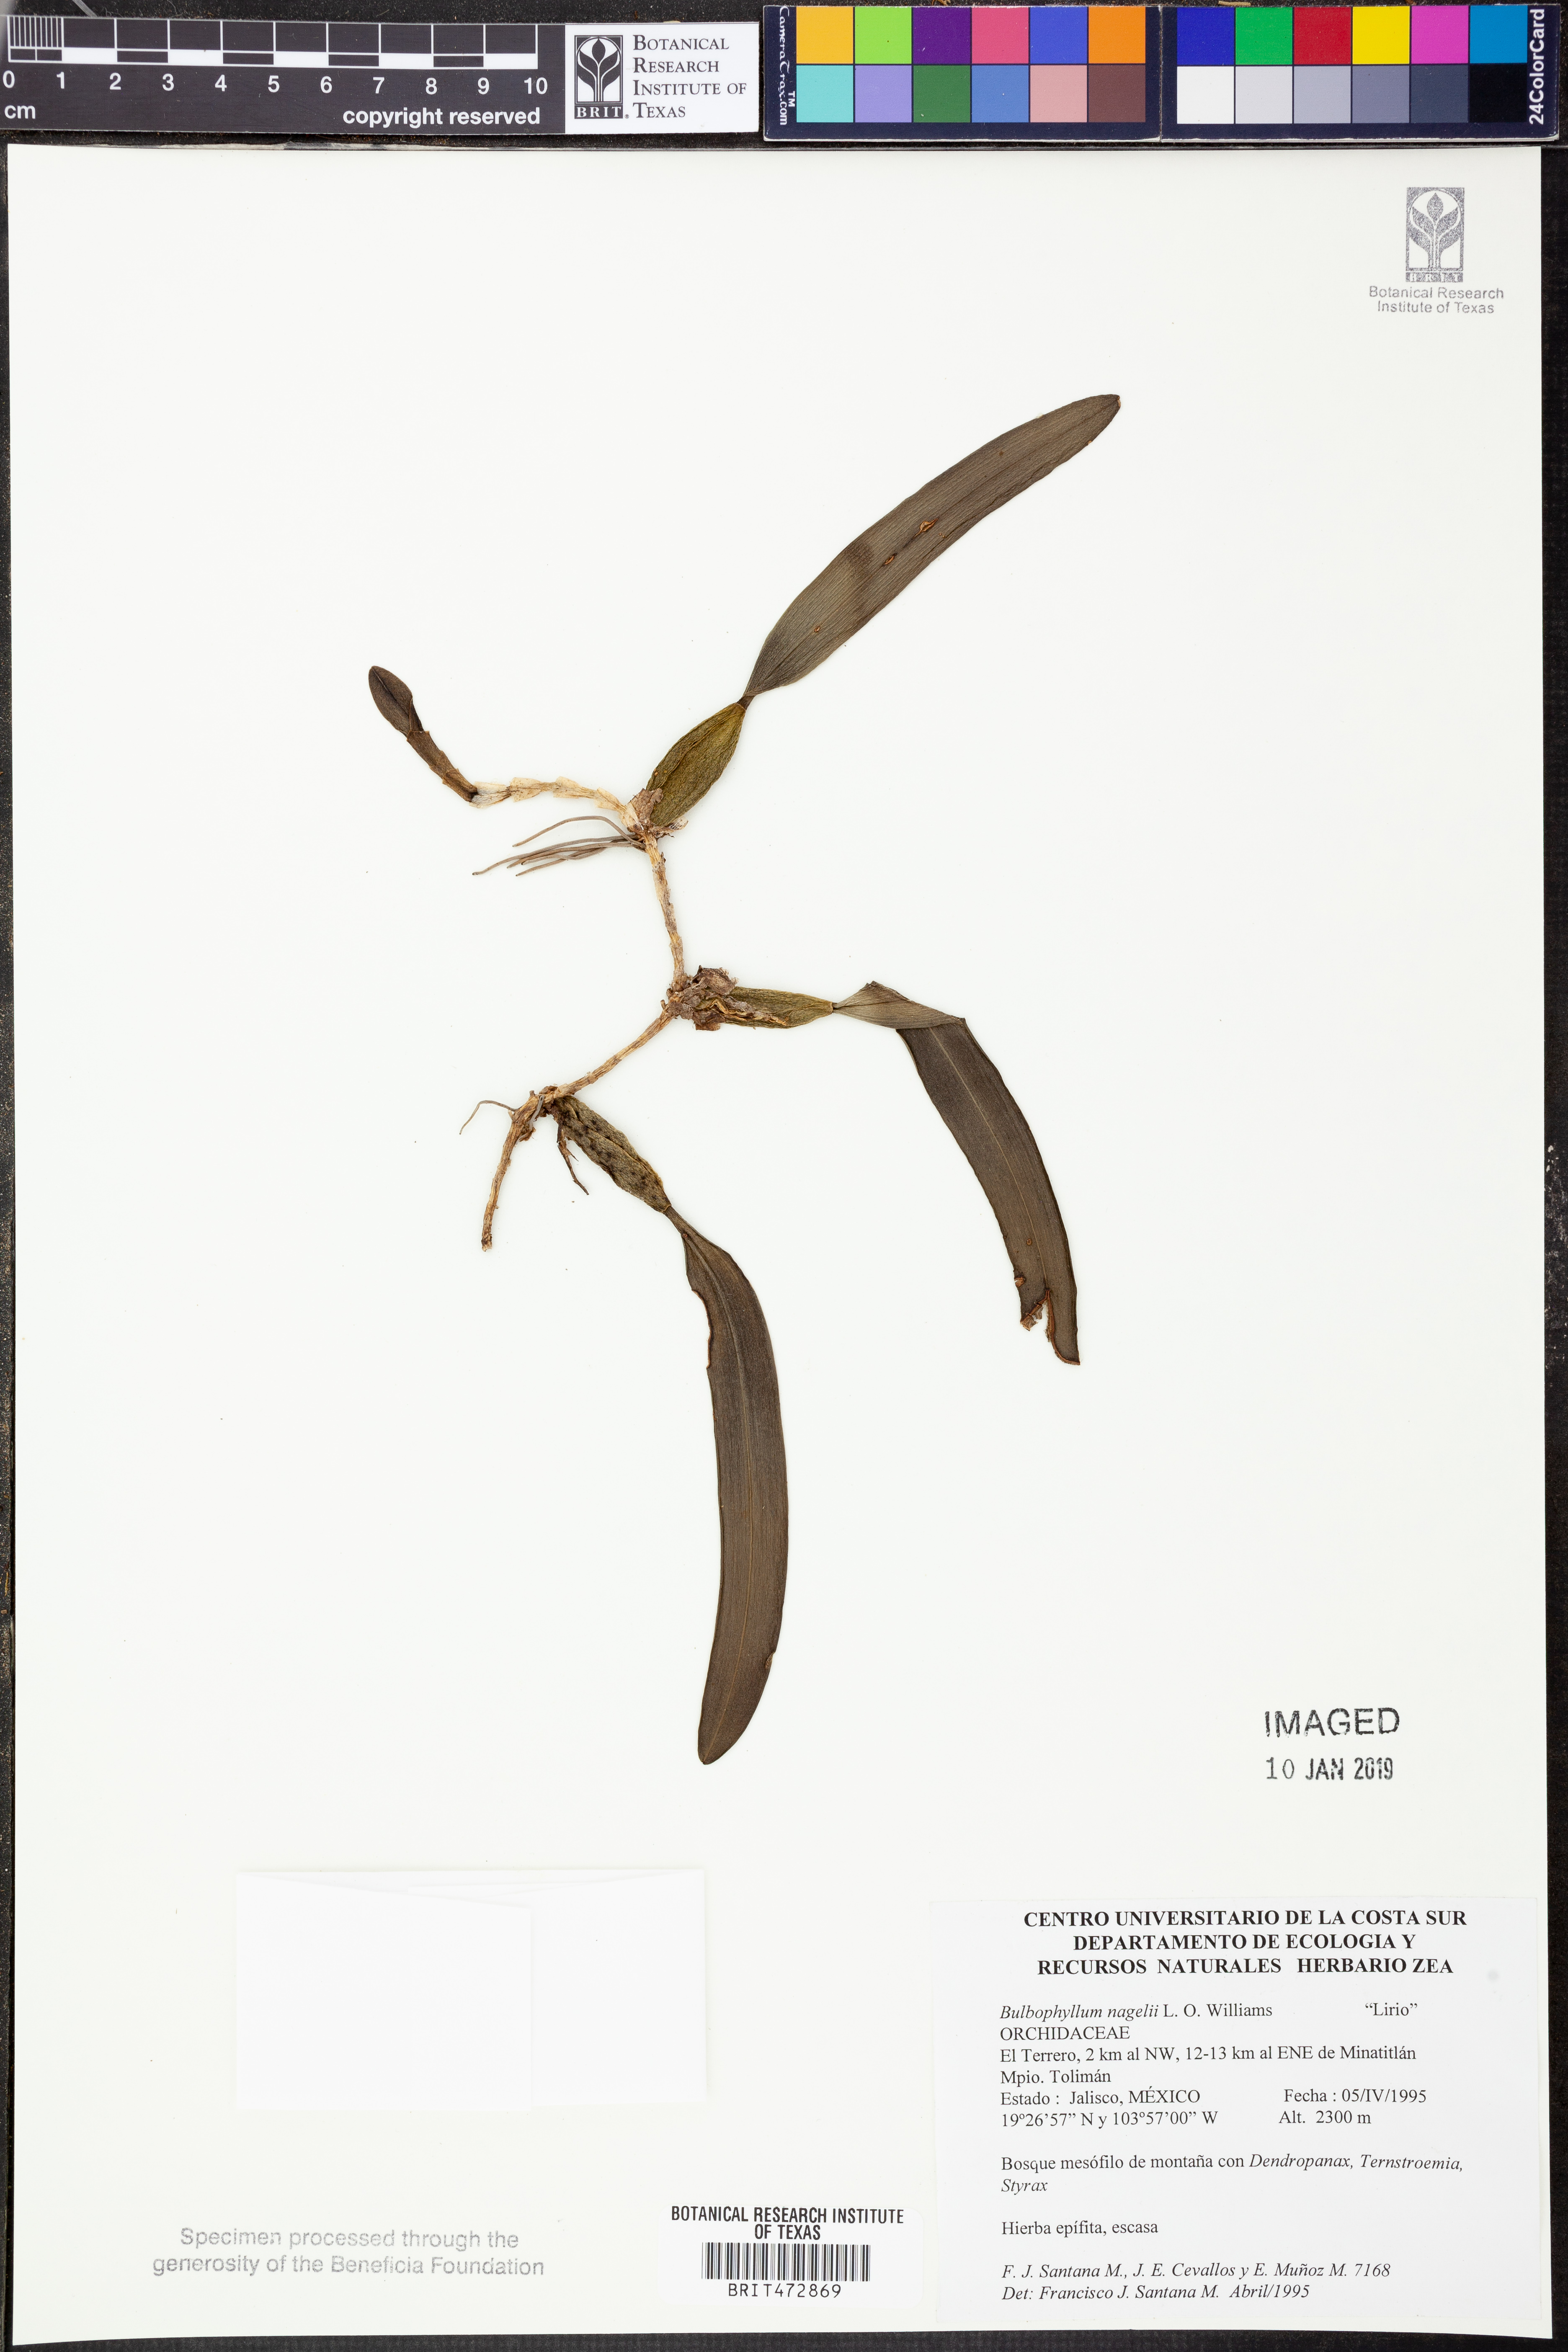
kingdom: Plantae
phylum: Tracheophyta
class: Liliopsida
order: Asparagales
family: Orchidaceae
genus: Bulbophyllum
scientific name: Bulbophyllum nagelii
